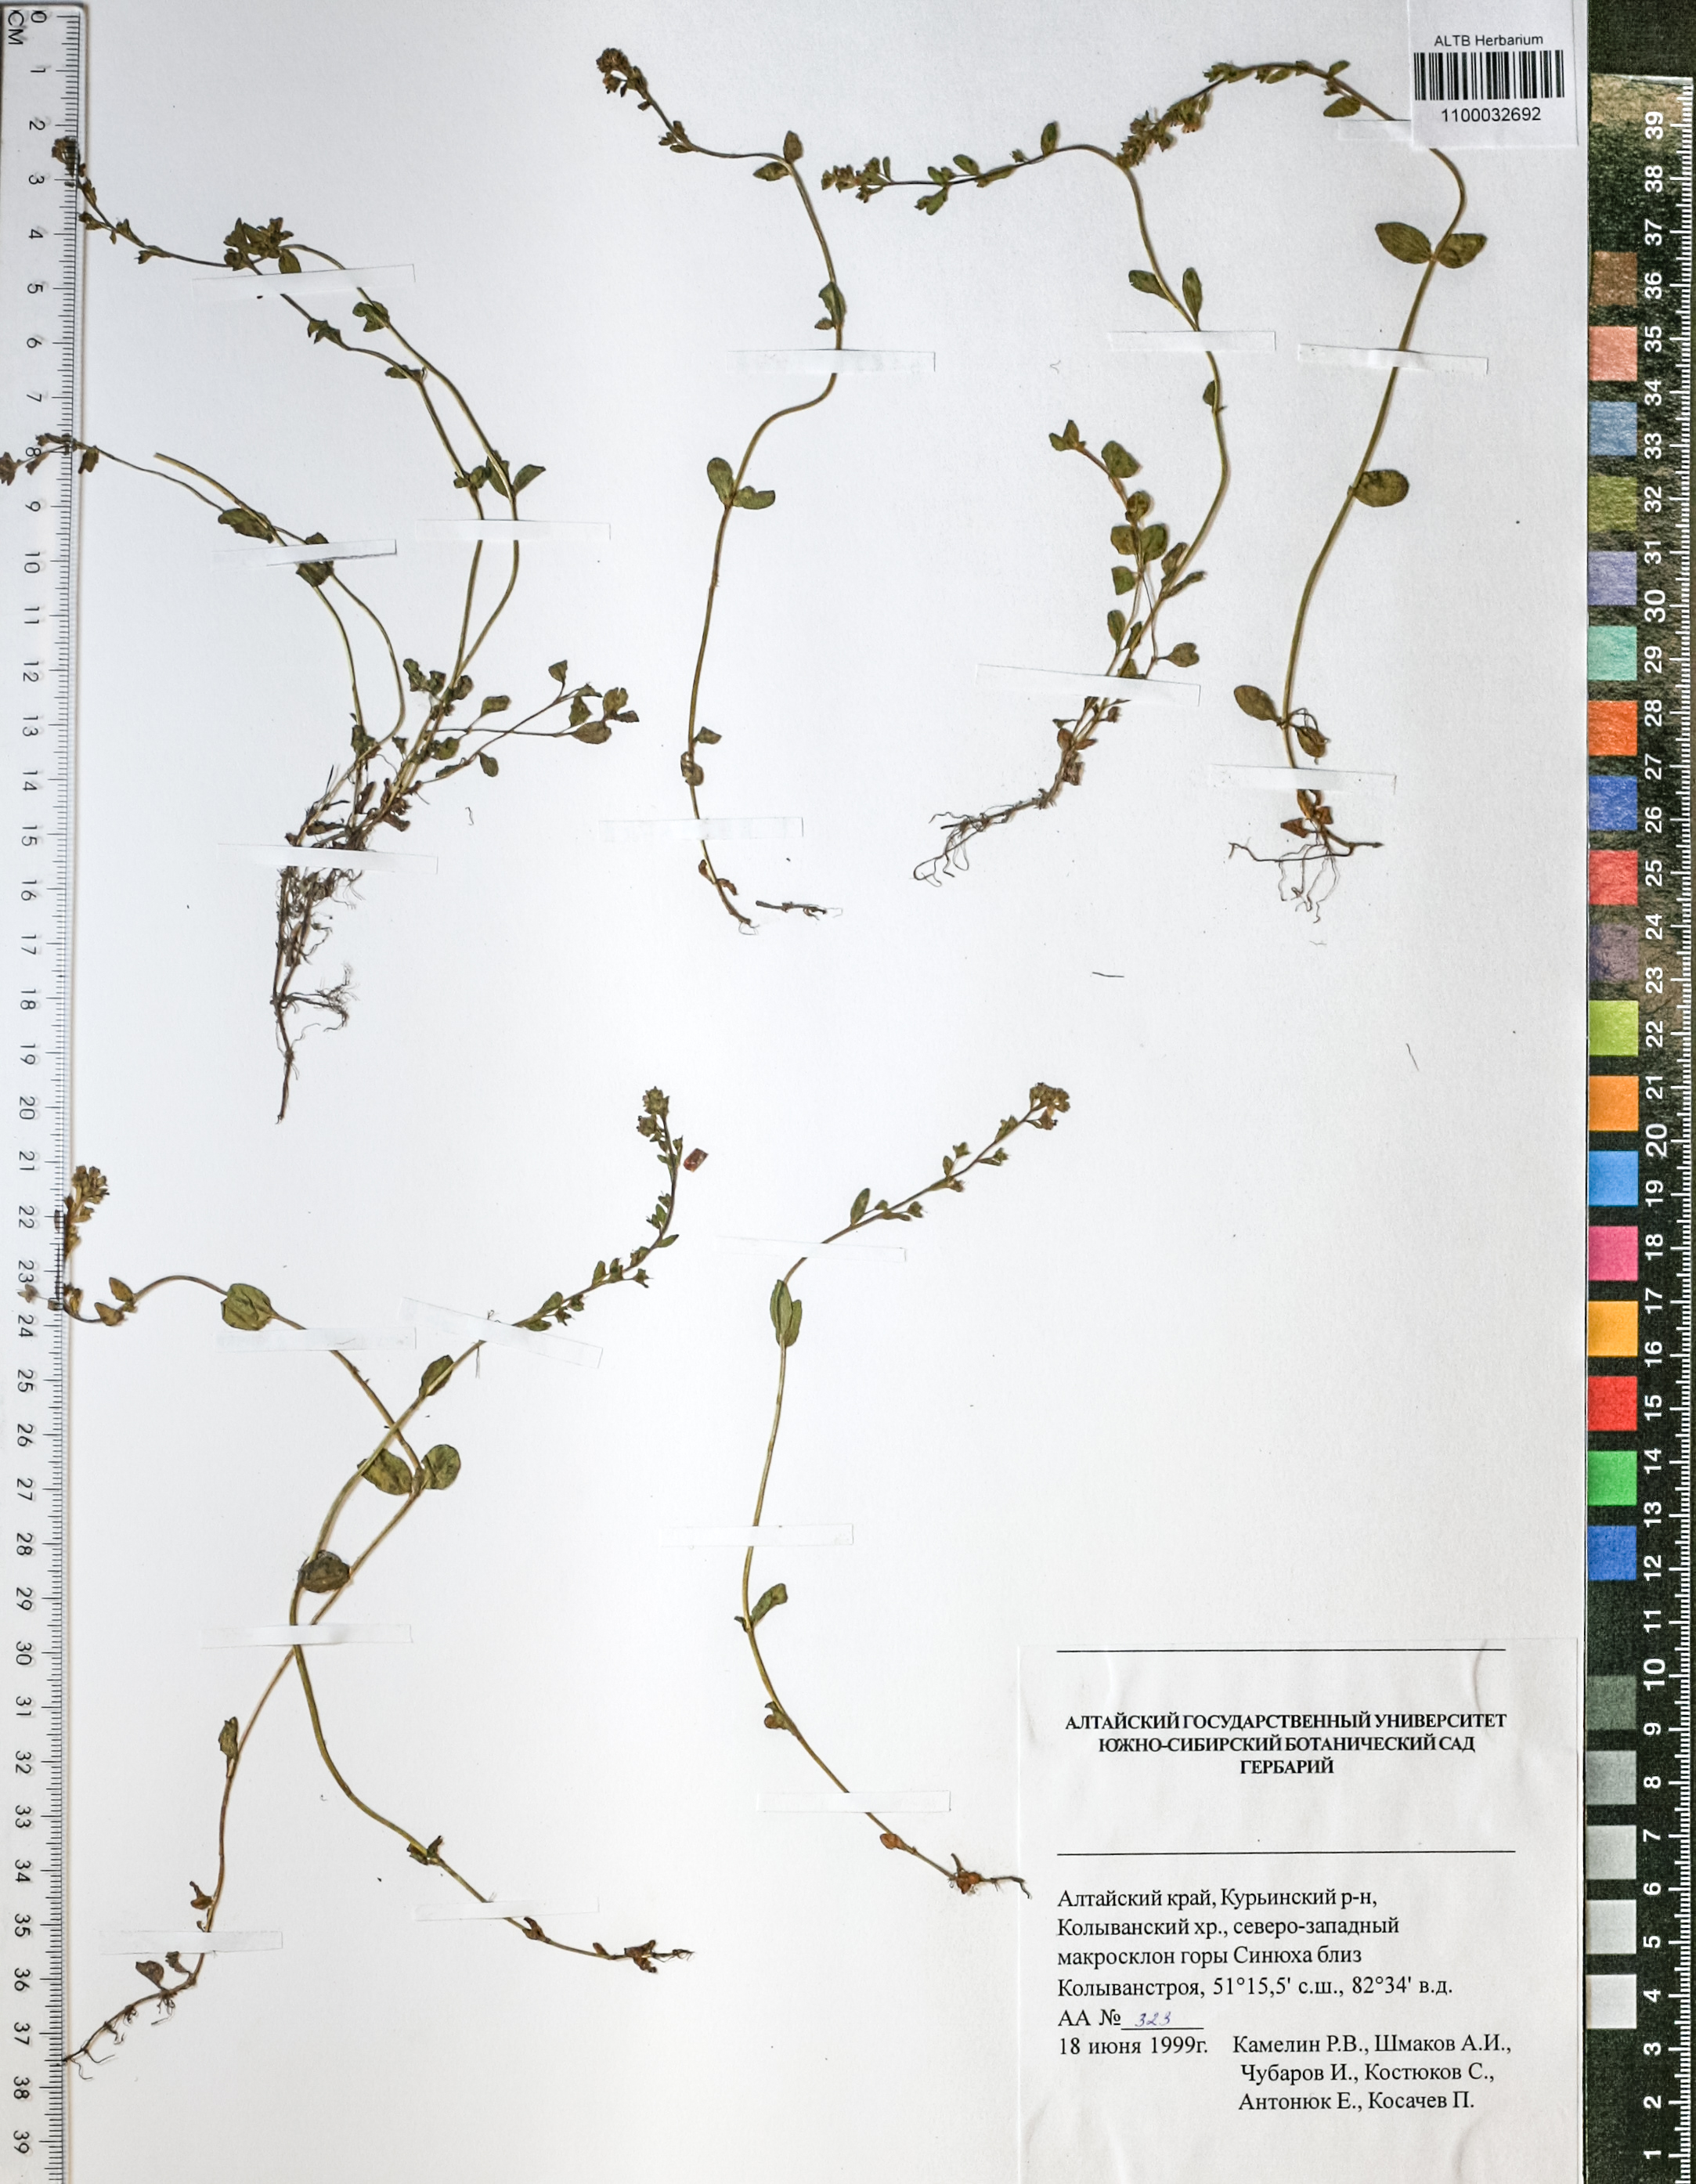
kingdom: Plantae
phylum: Tracheophyta
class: Magnoliopsida
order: Lamiales
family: Plantaginaceae
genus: Veronica
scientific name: Veronica krylovii
